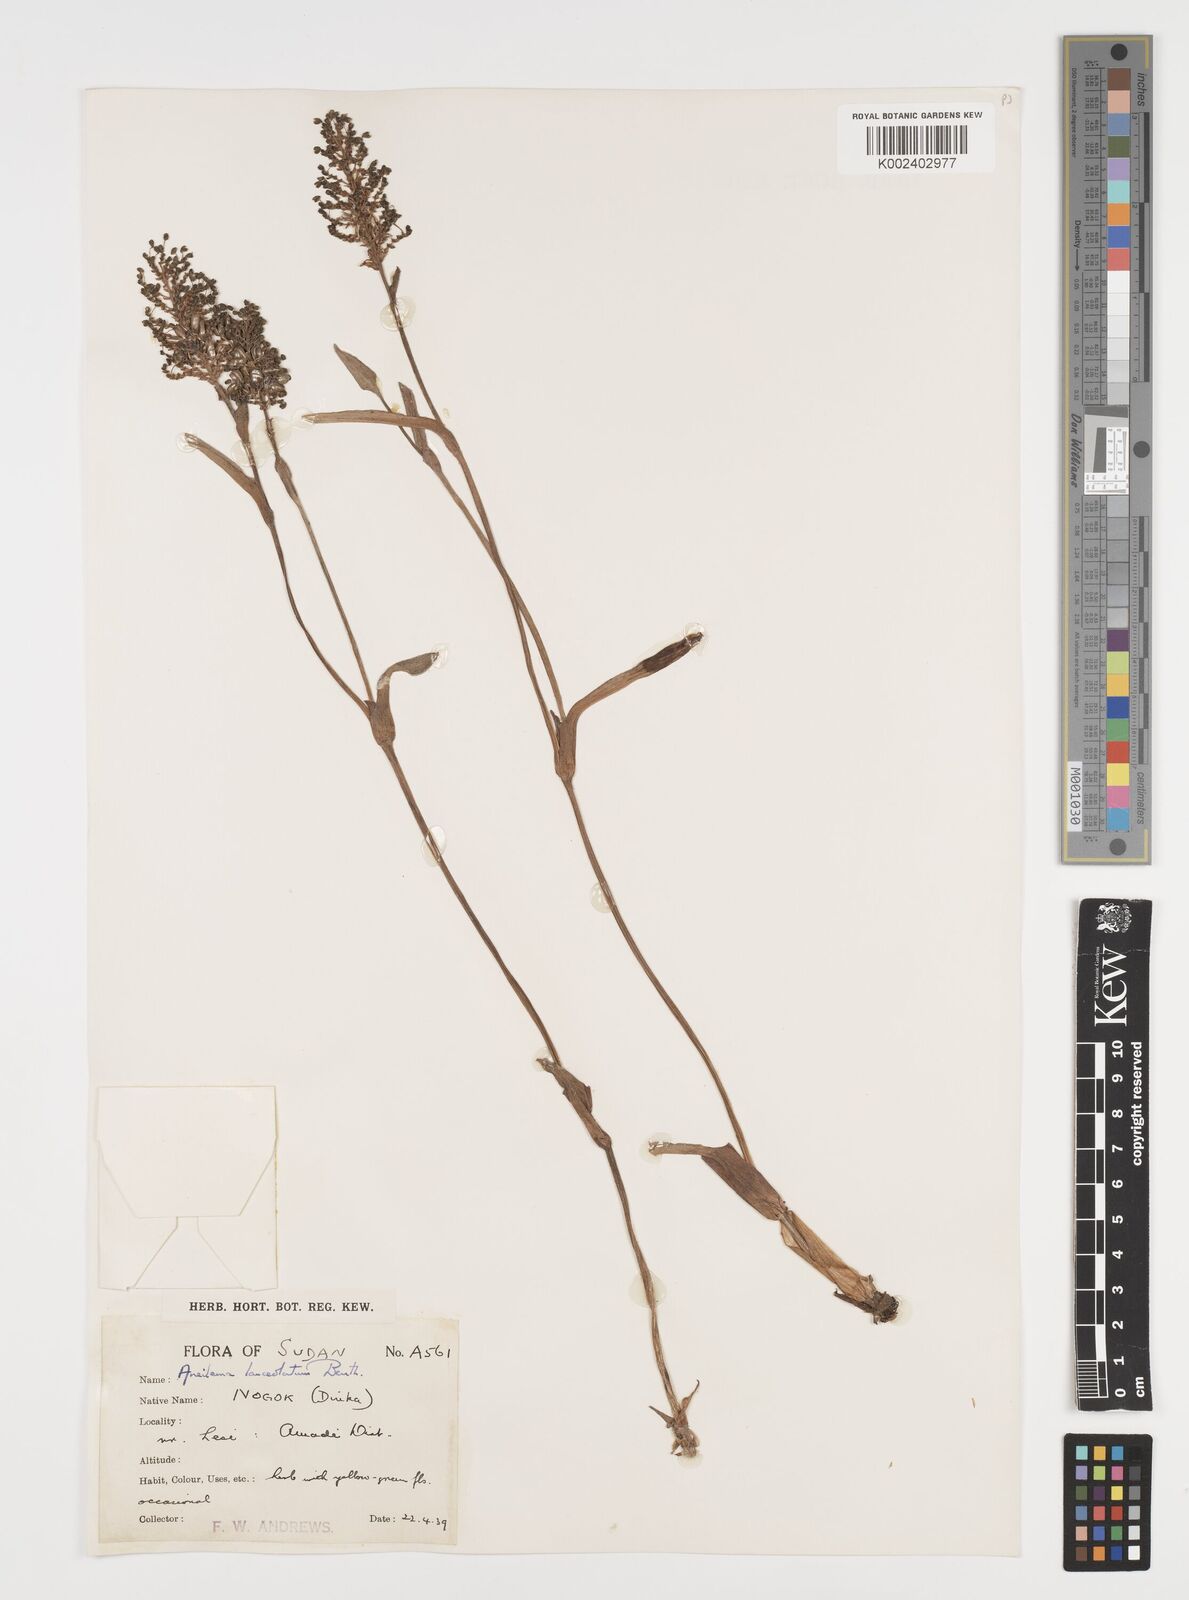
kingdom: Plantae
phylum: Tracheophyta
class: Liliopsida
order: Commelinales
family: Commelinaceae
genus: Aneilema
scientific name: Aneilema lanceolatum
